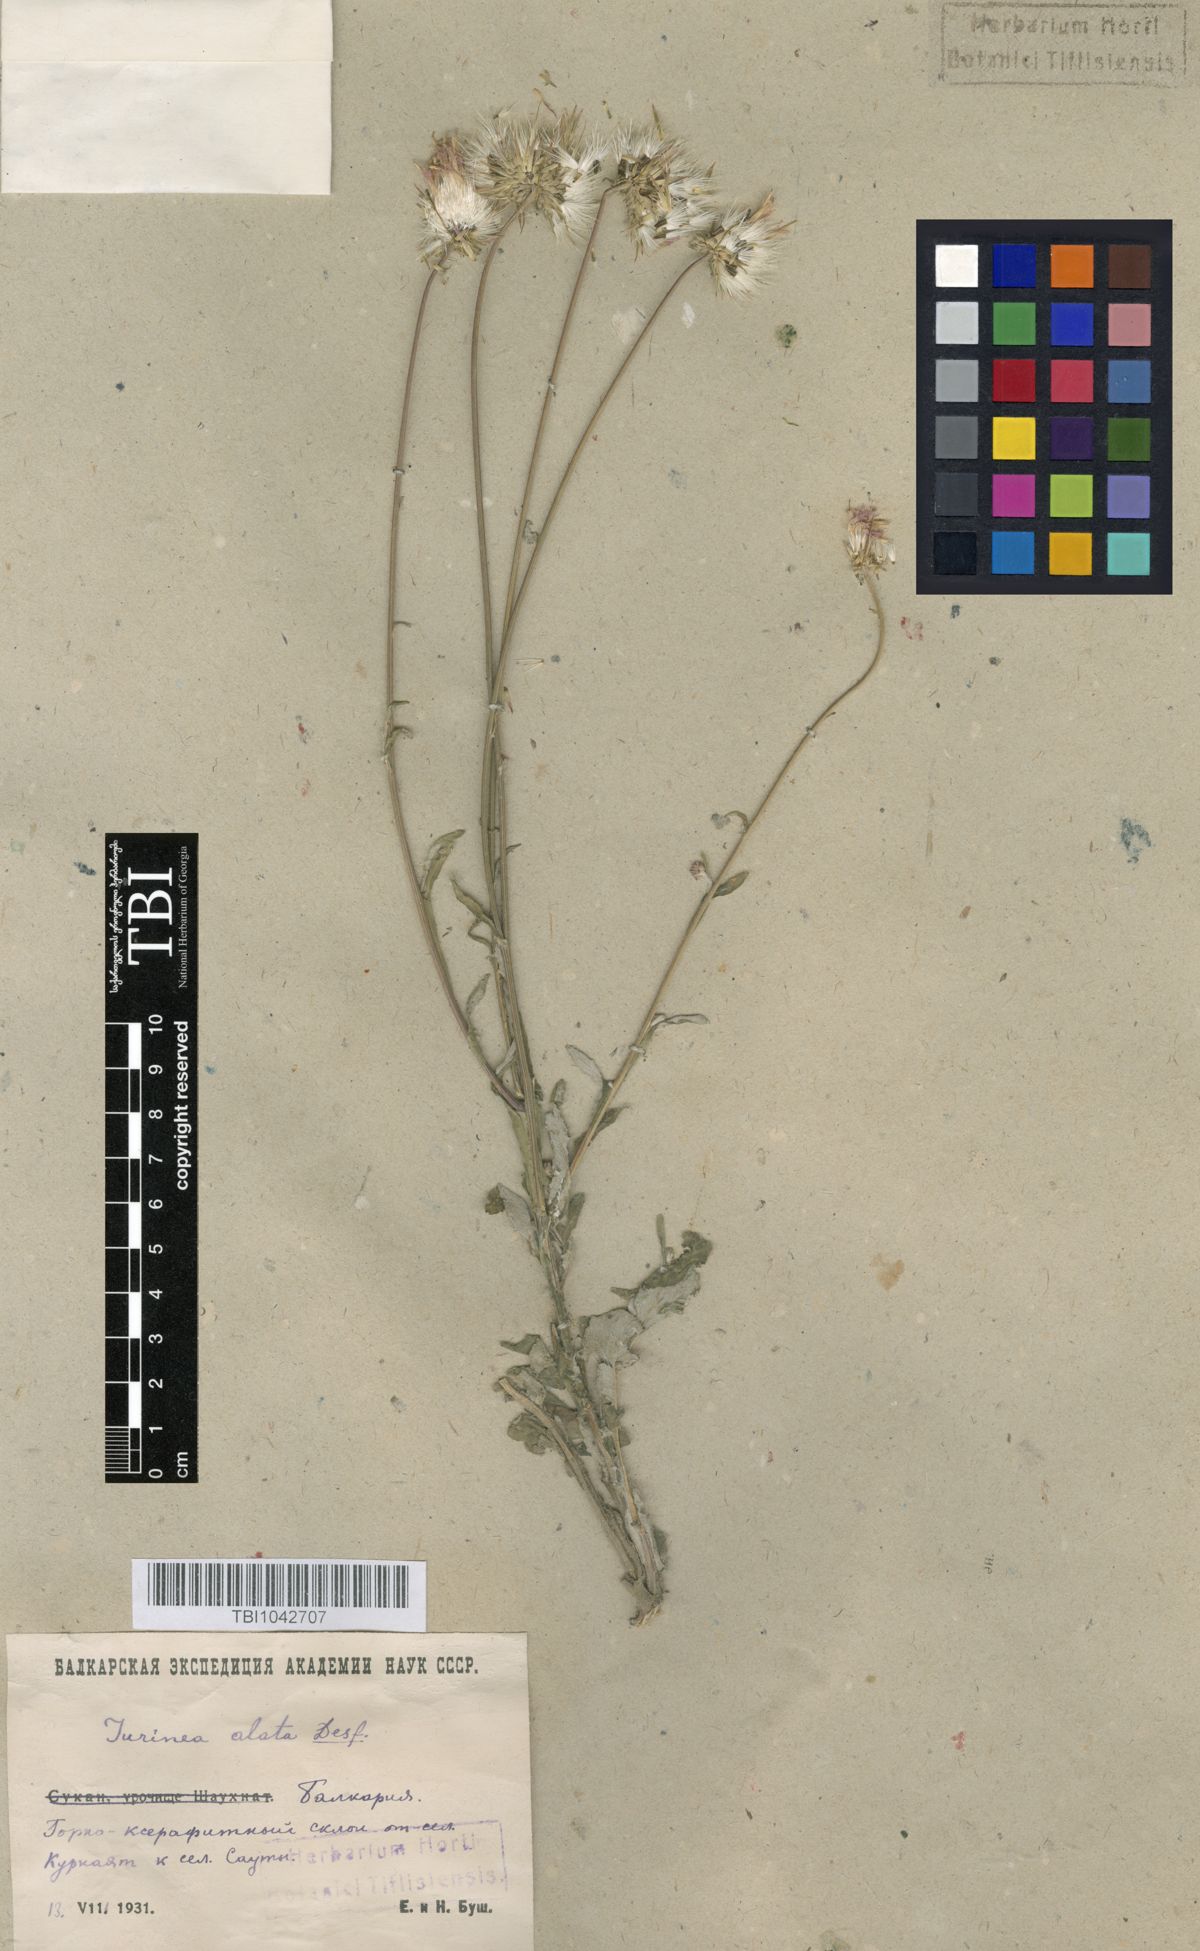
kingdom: Plantae
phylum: Tracheophyta
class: Magnoliopsida
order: Asterales
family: Asteraceae
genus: Jurinea
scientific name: Jurinea alata
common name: Winged jurinea
